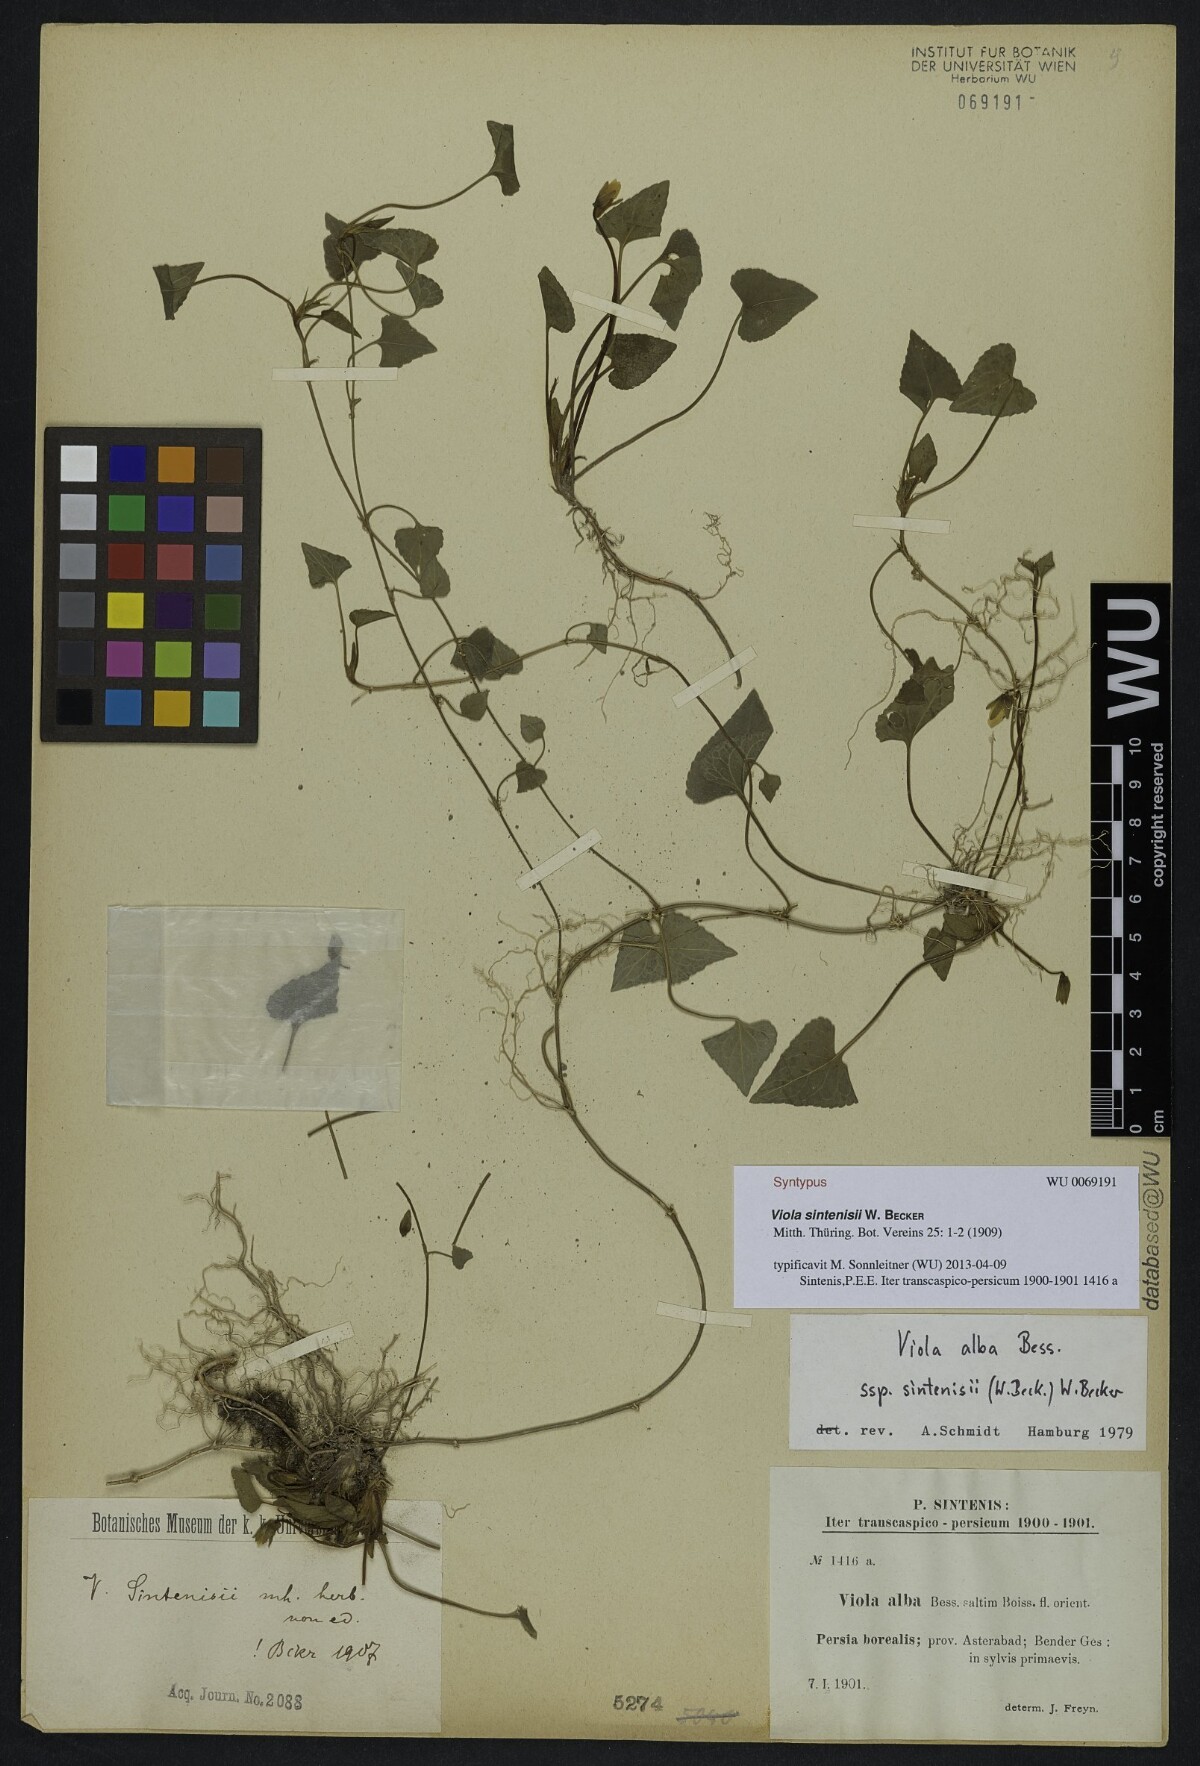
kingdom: Plantae
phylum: Tracheophyta
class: Magnoliopsida
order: Malpighiales
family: Violaceae
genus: Viola
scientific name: Viola sintenisii
